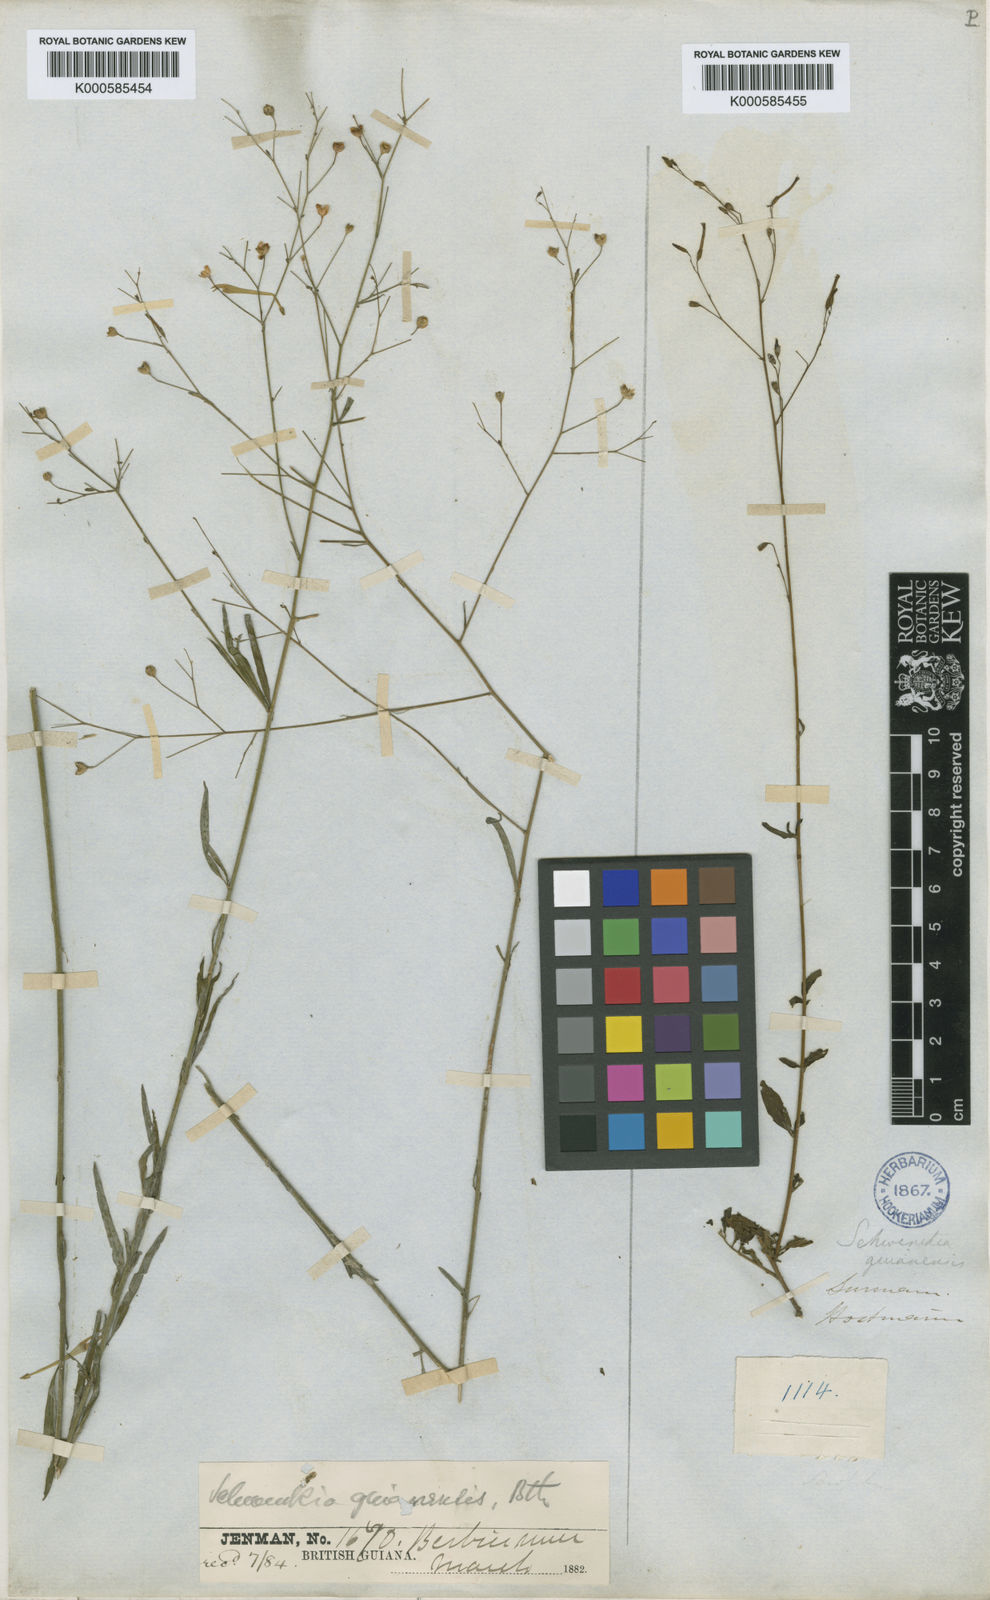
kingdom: Plantae
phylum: Tracheophyta
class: Magnoliopsida
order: Solanales
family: Solanaceae
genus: Schwenckia
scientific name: Schwenckia americana
